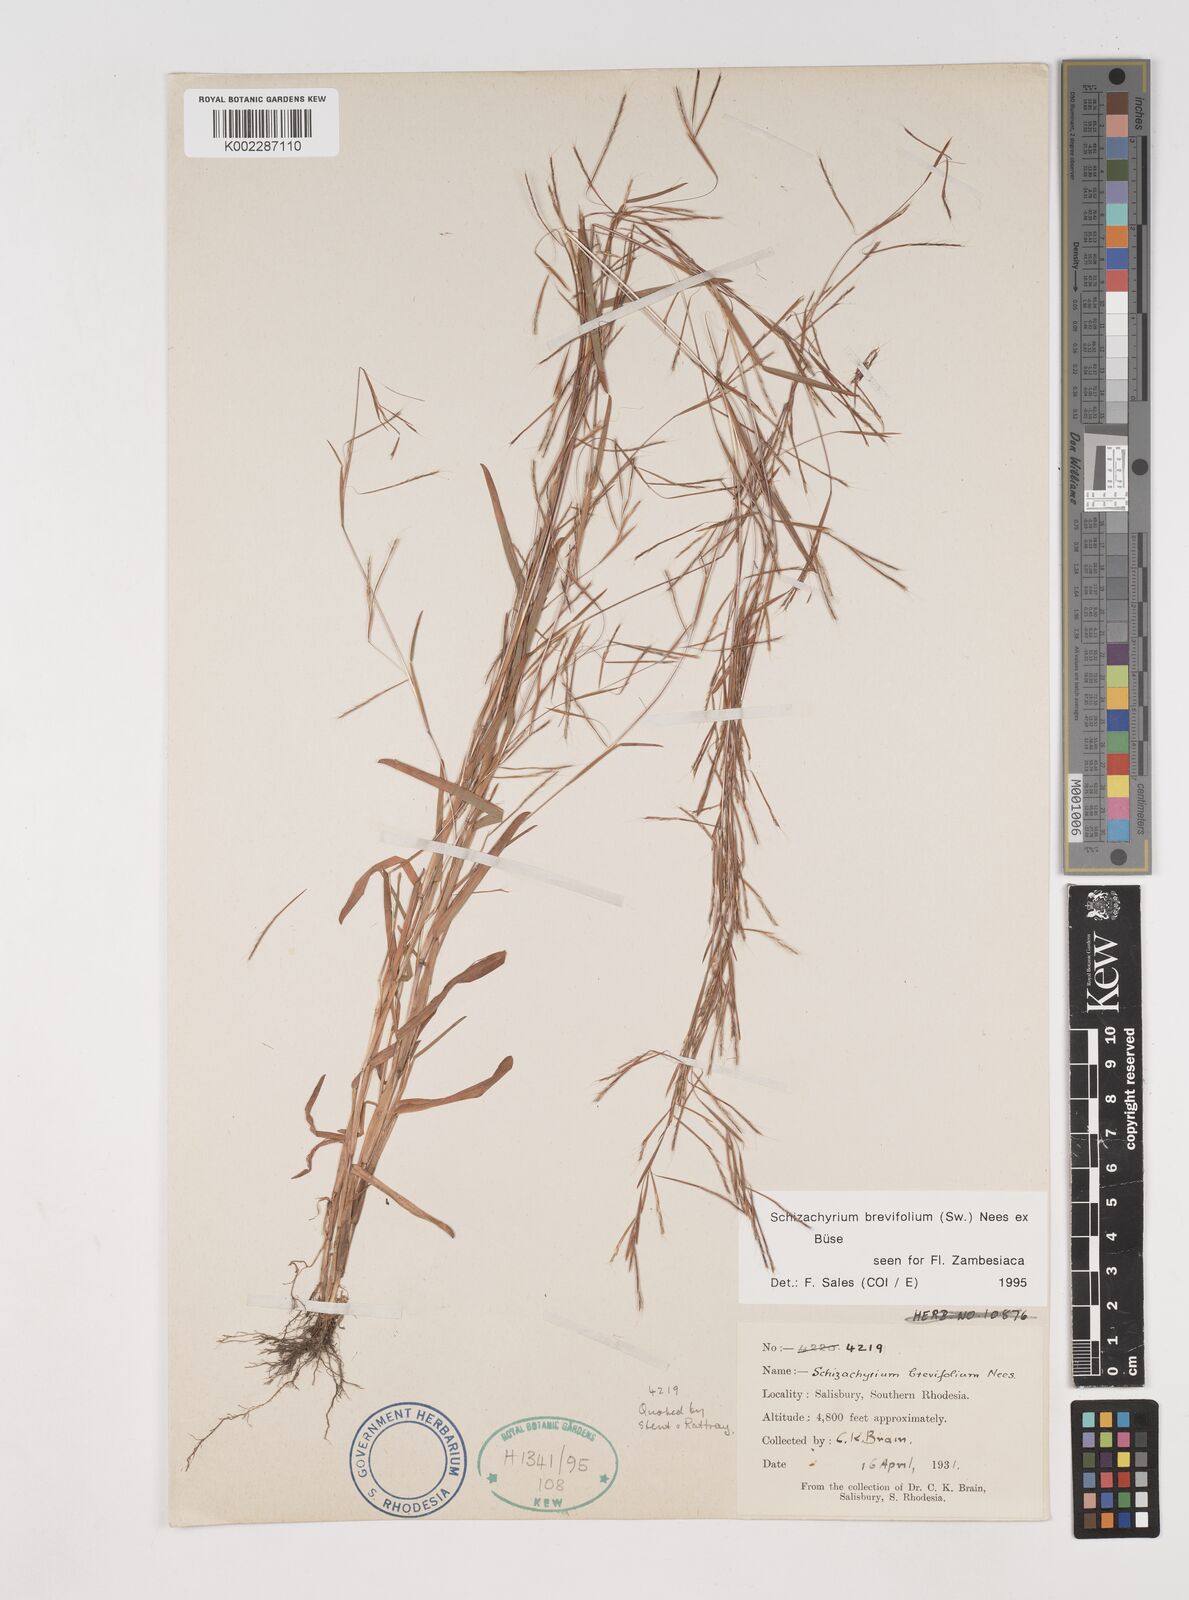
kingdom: Plantae
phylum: Tracheophyta
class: Liliopsida
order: Poales
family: Poaceae
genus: Schizachyrium
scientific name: Schizachyrium brevifolium
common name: Serillo dulce
